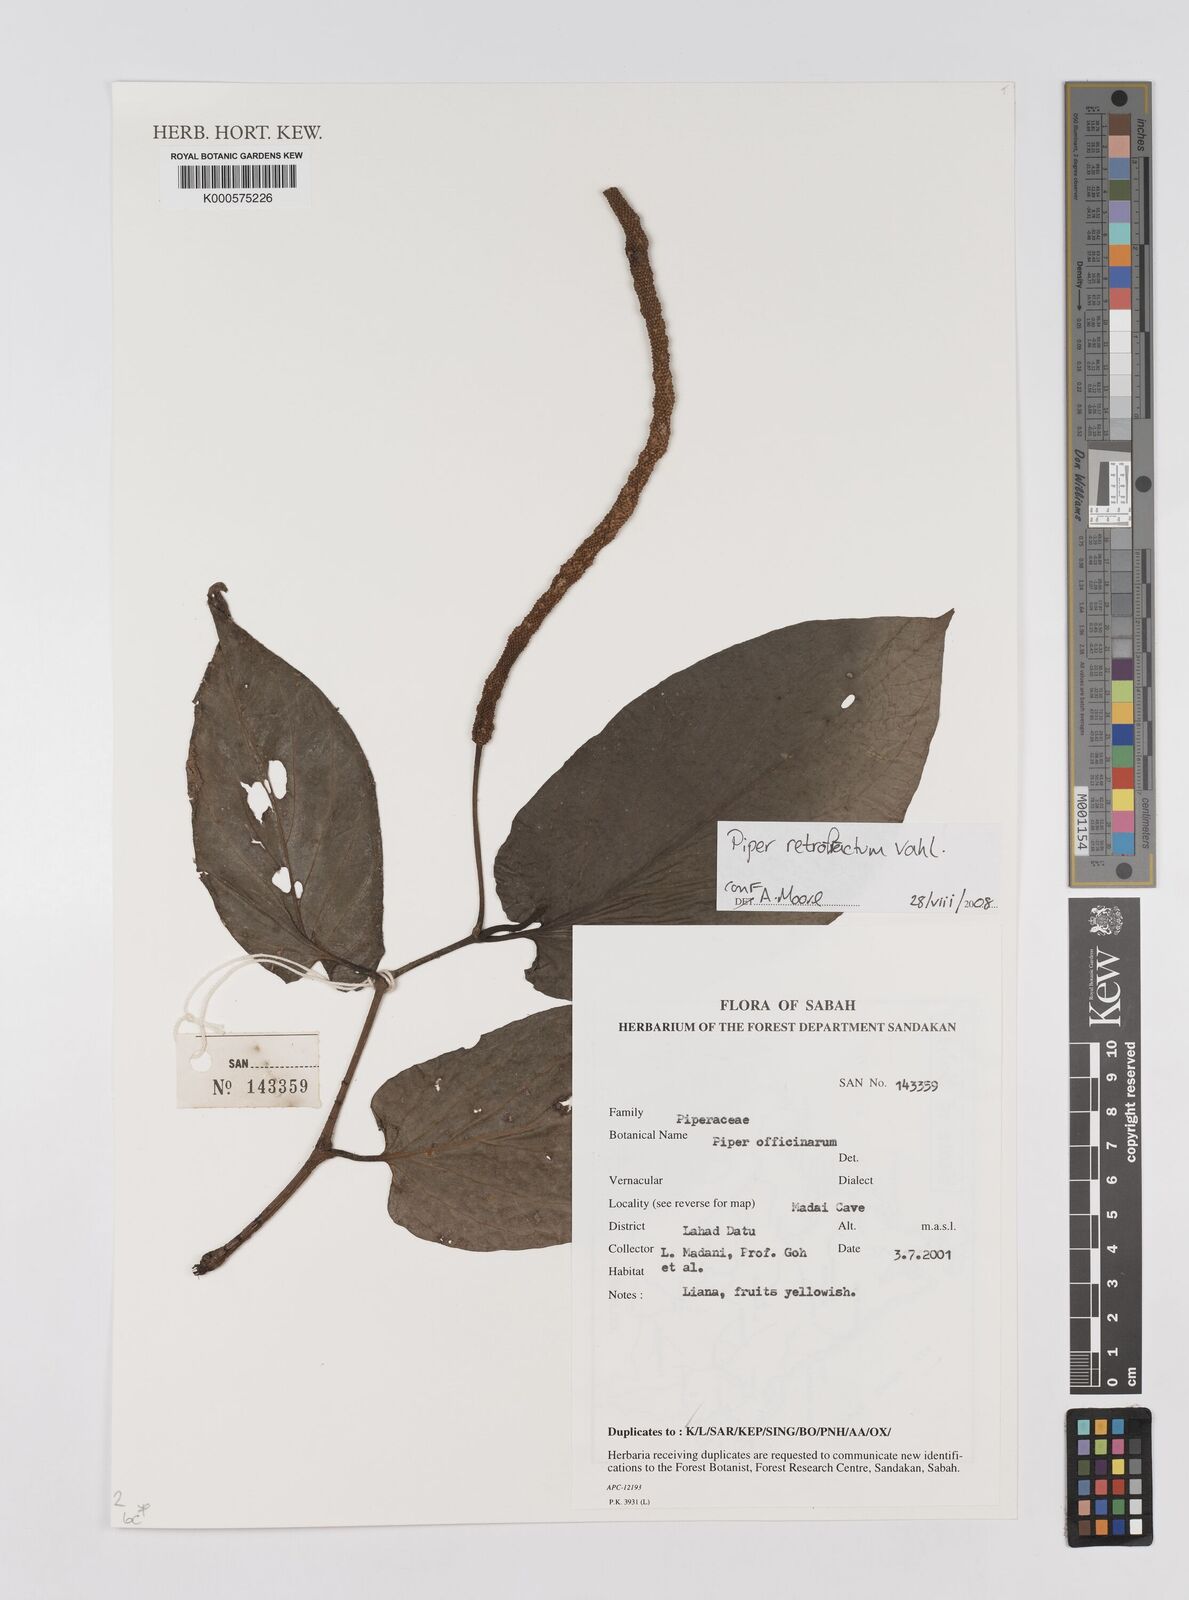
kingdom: Plantae
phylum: Tracheophyta
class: Magnoliopsida
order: Piperales
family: Piperaceae
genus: Piper
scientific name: Piper retrofractum
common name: Javanese long pepper
